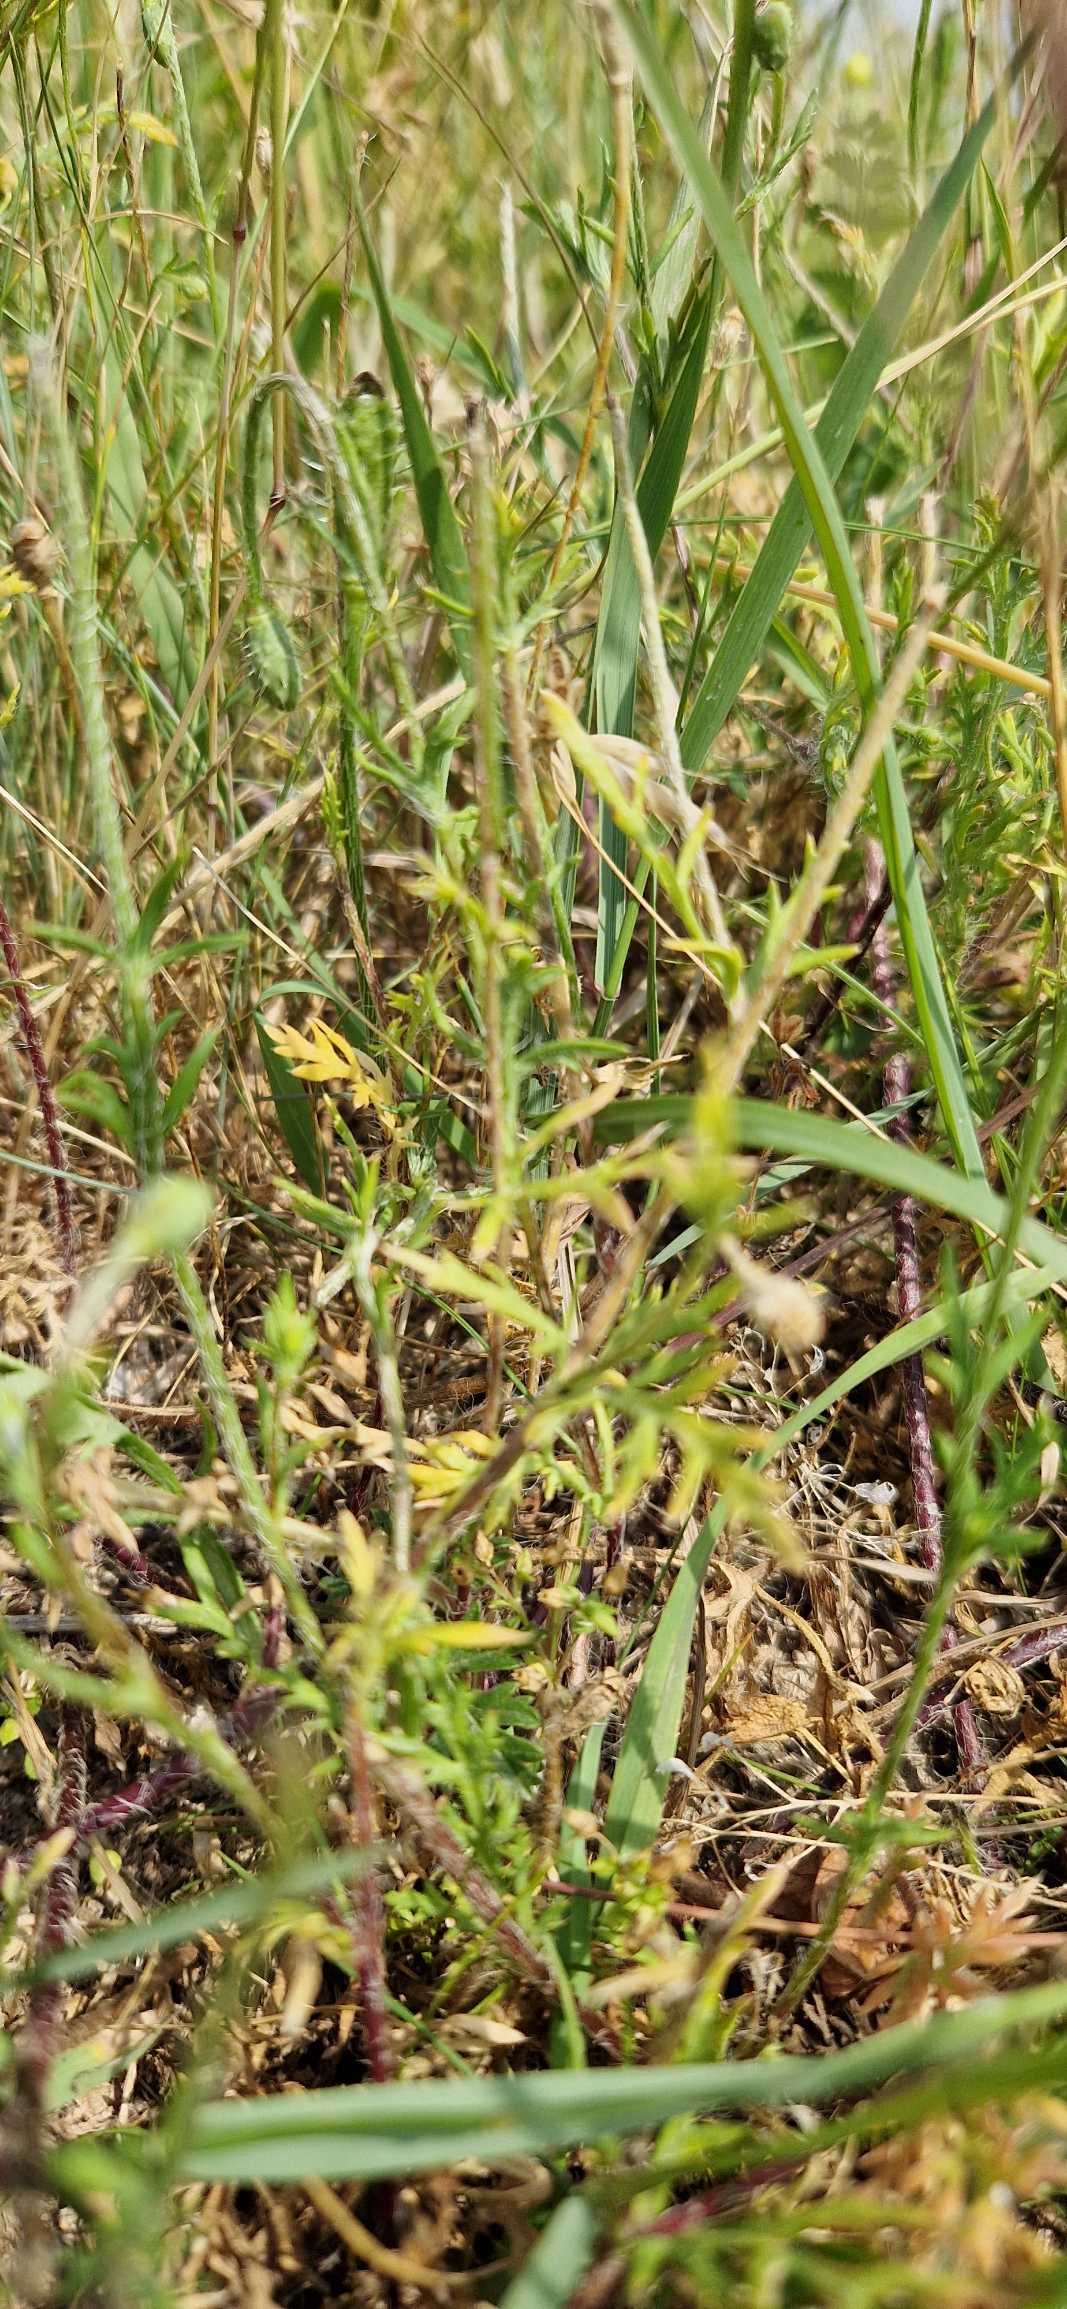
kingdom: Plantae
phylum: Tracheophyta
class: Magnoliopsida
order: Ranunculales
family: Papaveraceae
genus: Roemeria
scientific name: Roemeria argemone
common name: Kølle-valmue
